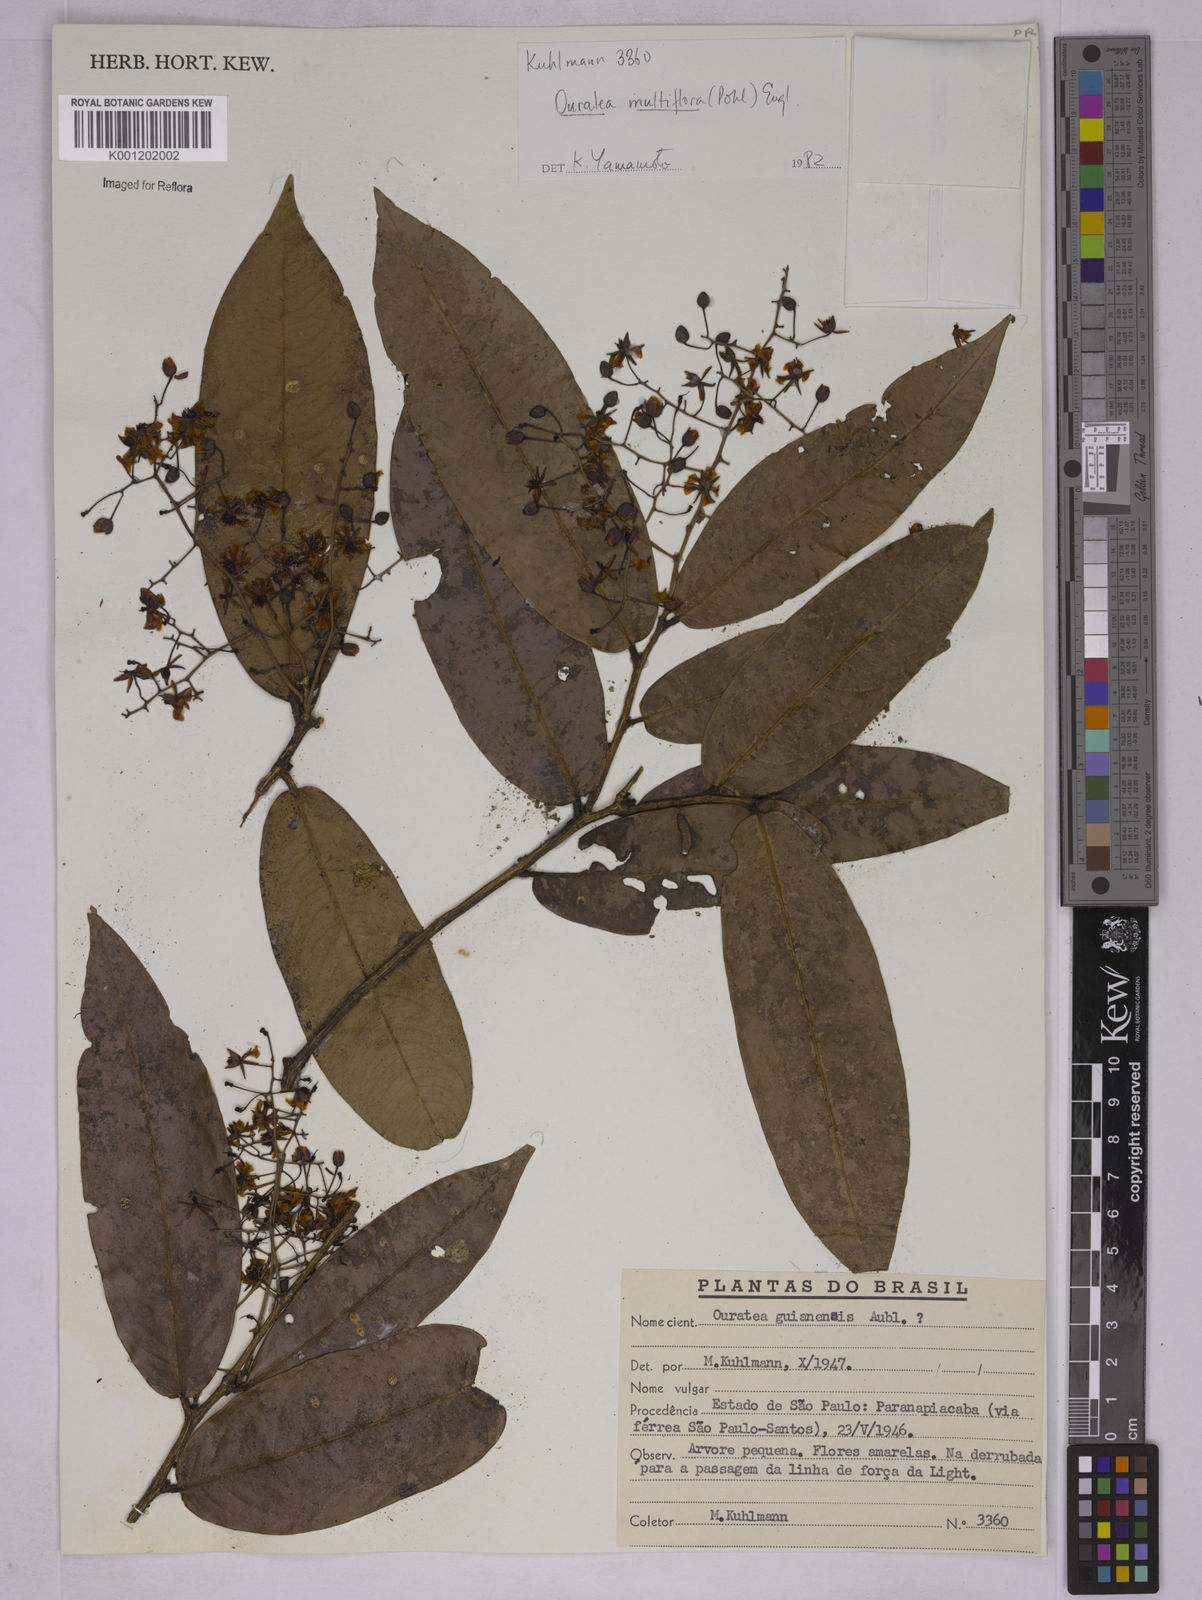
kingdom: Plantae
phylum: Tracheophyta
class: Magnoliopsida
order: Malpighiales
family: Ochnaceae
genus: Ouratea
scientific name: Ouratea multiflora
